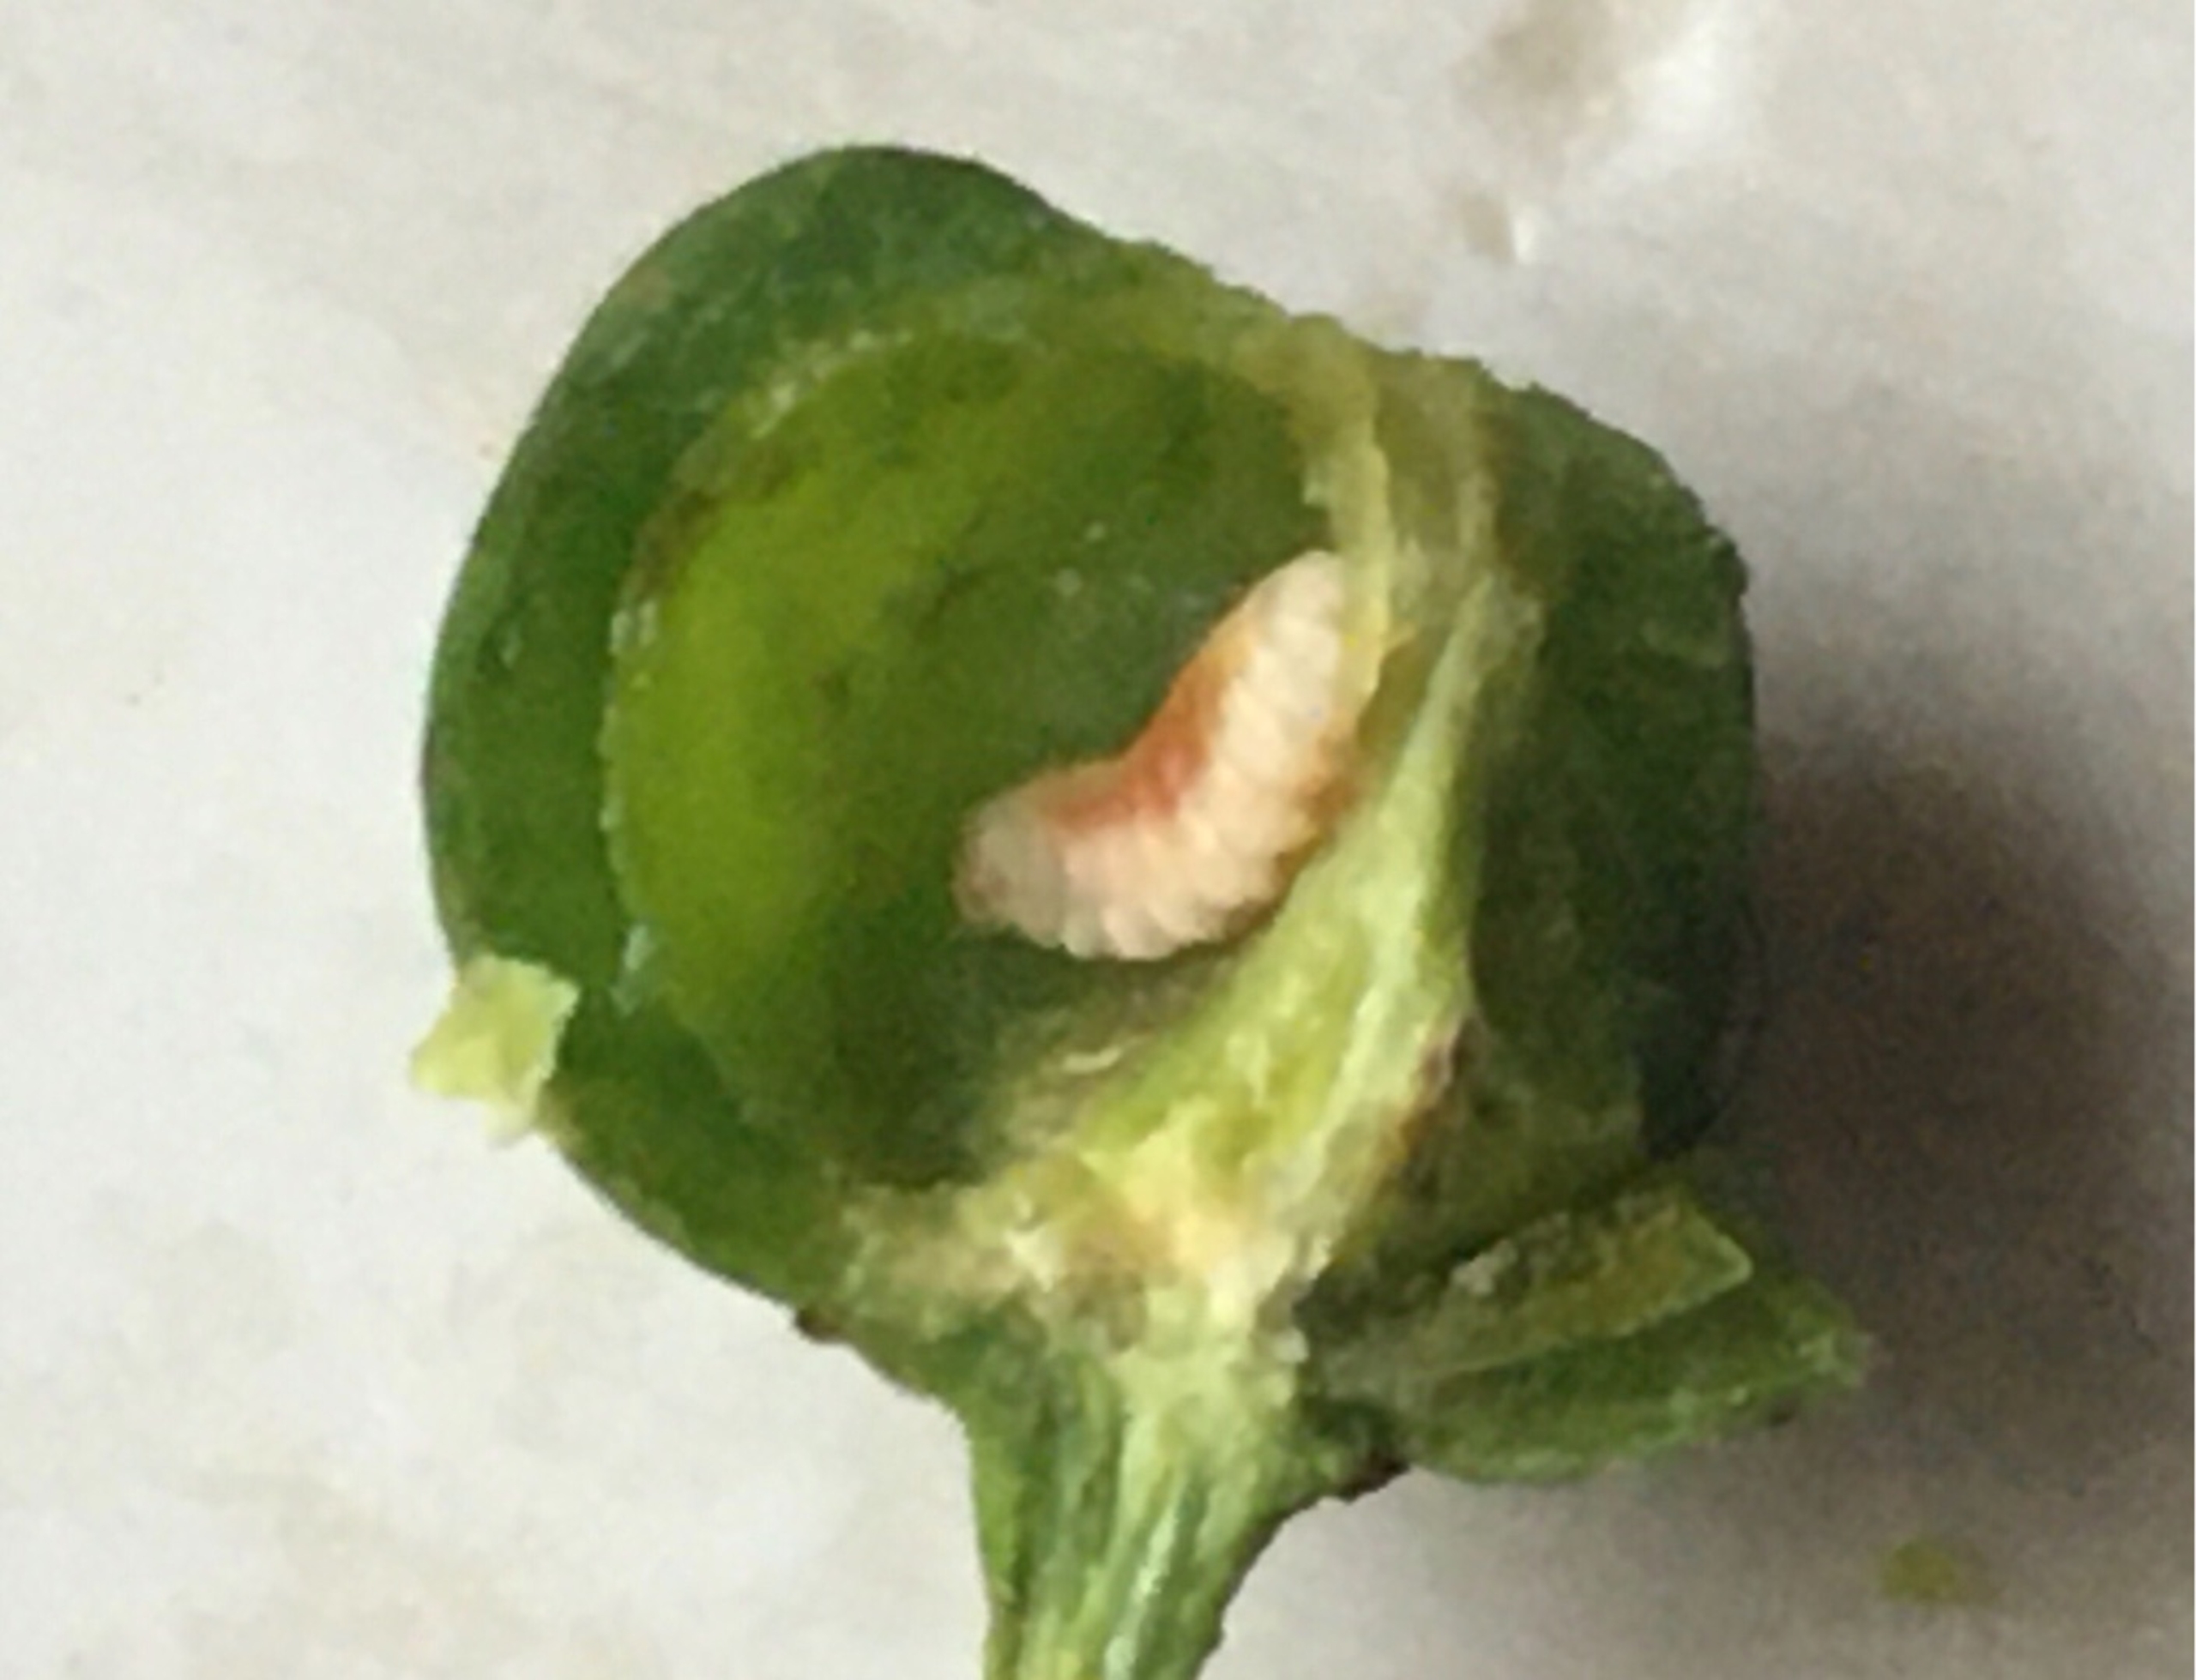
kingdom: Animalia
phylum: Arthropoda
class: Insecta
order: Diptera
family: Cecidomyiidae
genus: Wachtliella
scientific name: Wachtliella krumbholzi
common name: Vrietorngalmyg
